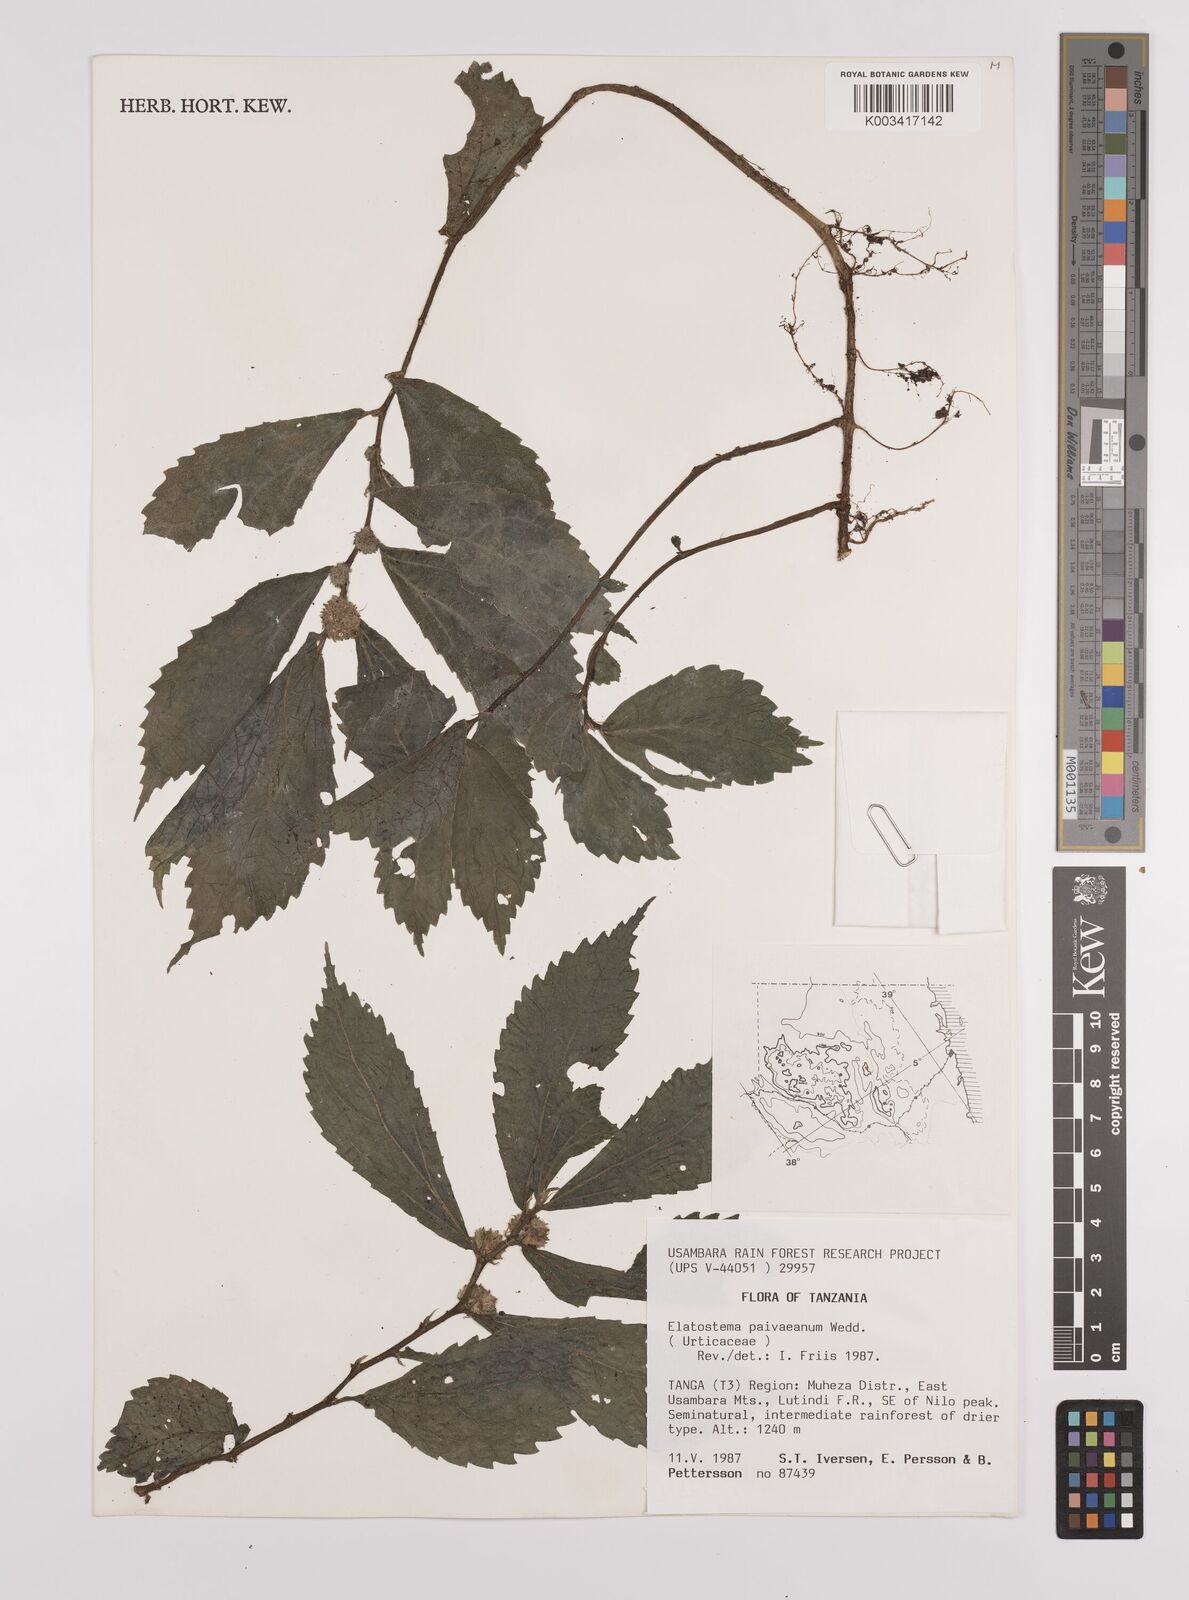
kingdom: Plantae
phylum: Tracheophyta
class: Magnoliopsida
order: Rosales
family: Urticaceae
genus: Elatostema
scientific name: Elatostema paivaeanum
